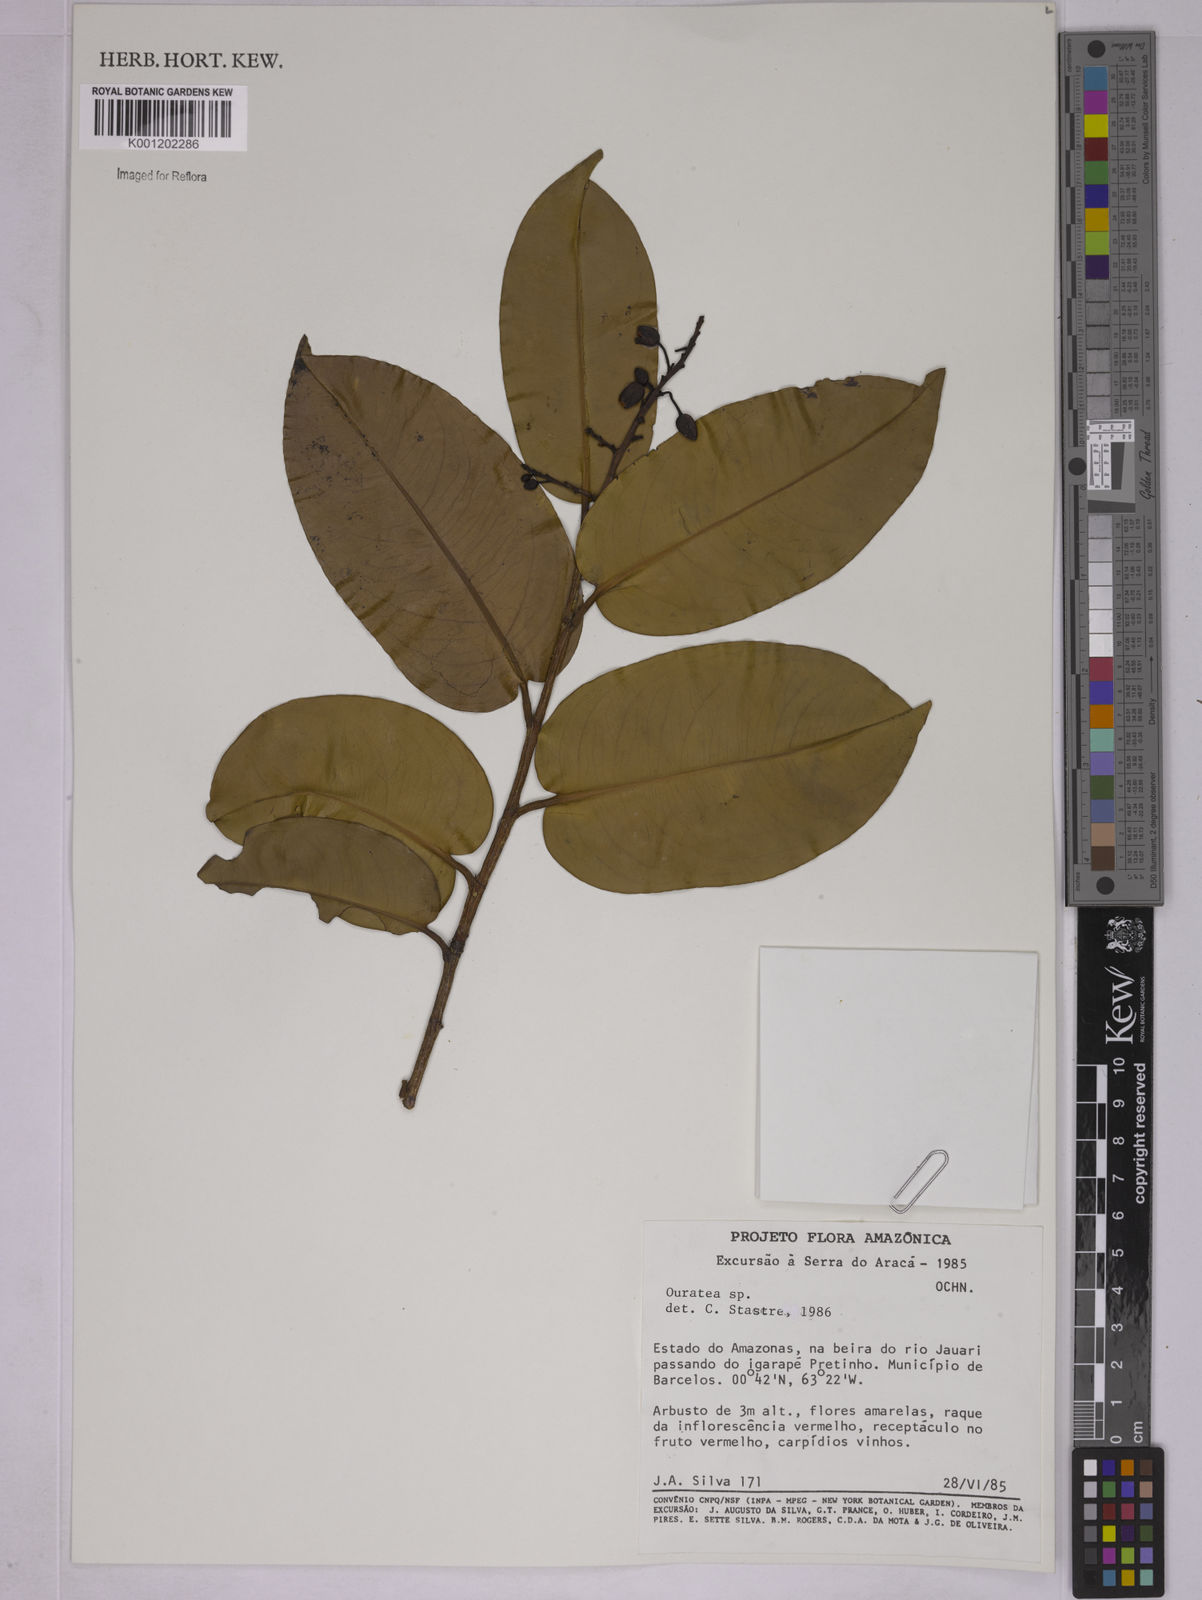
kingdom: Plantae
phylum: Tracheophyta
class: Magnoliopsida
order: Malpighiales
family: Ochnaceae
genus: Ouratea
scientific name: Ouratea
